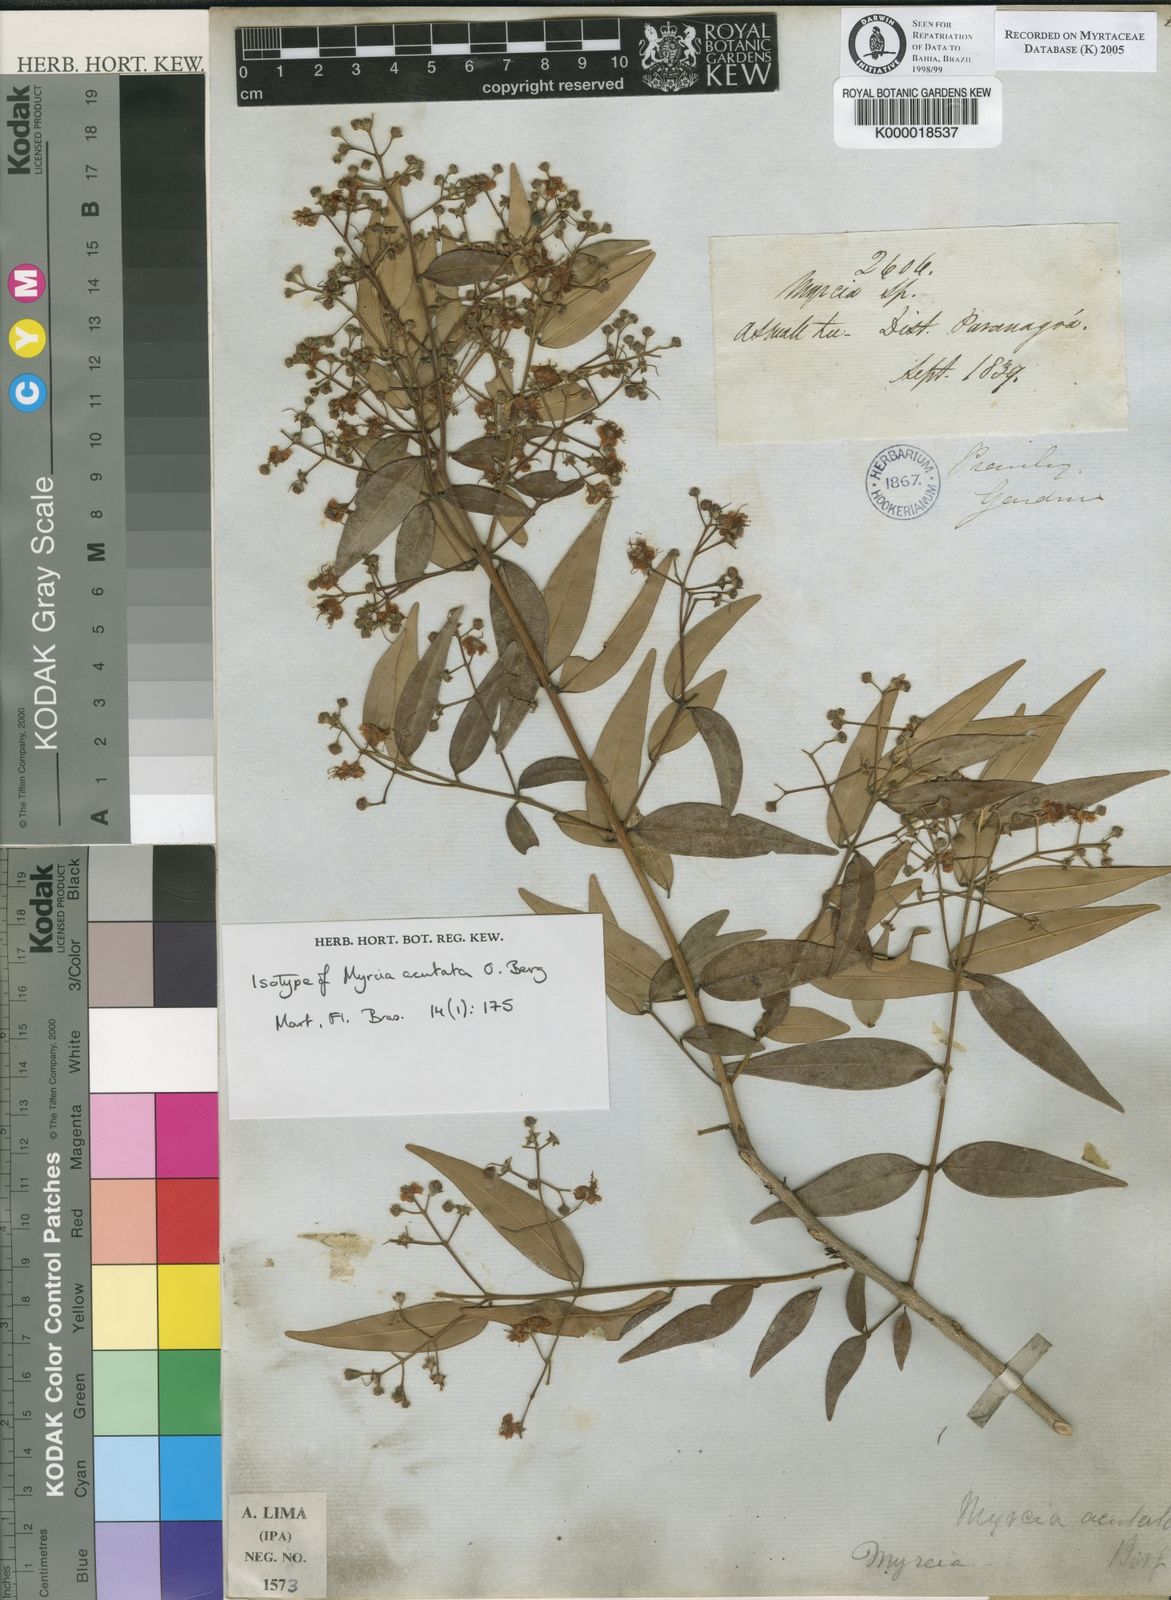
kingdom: Plantae
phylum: Tracheophyta
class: Magnoliopsida
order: Myrtales
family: Myrtaceae
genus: Myrcia
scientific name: Myrcia splendens
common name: Surinam cherry
